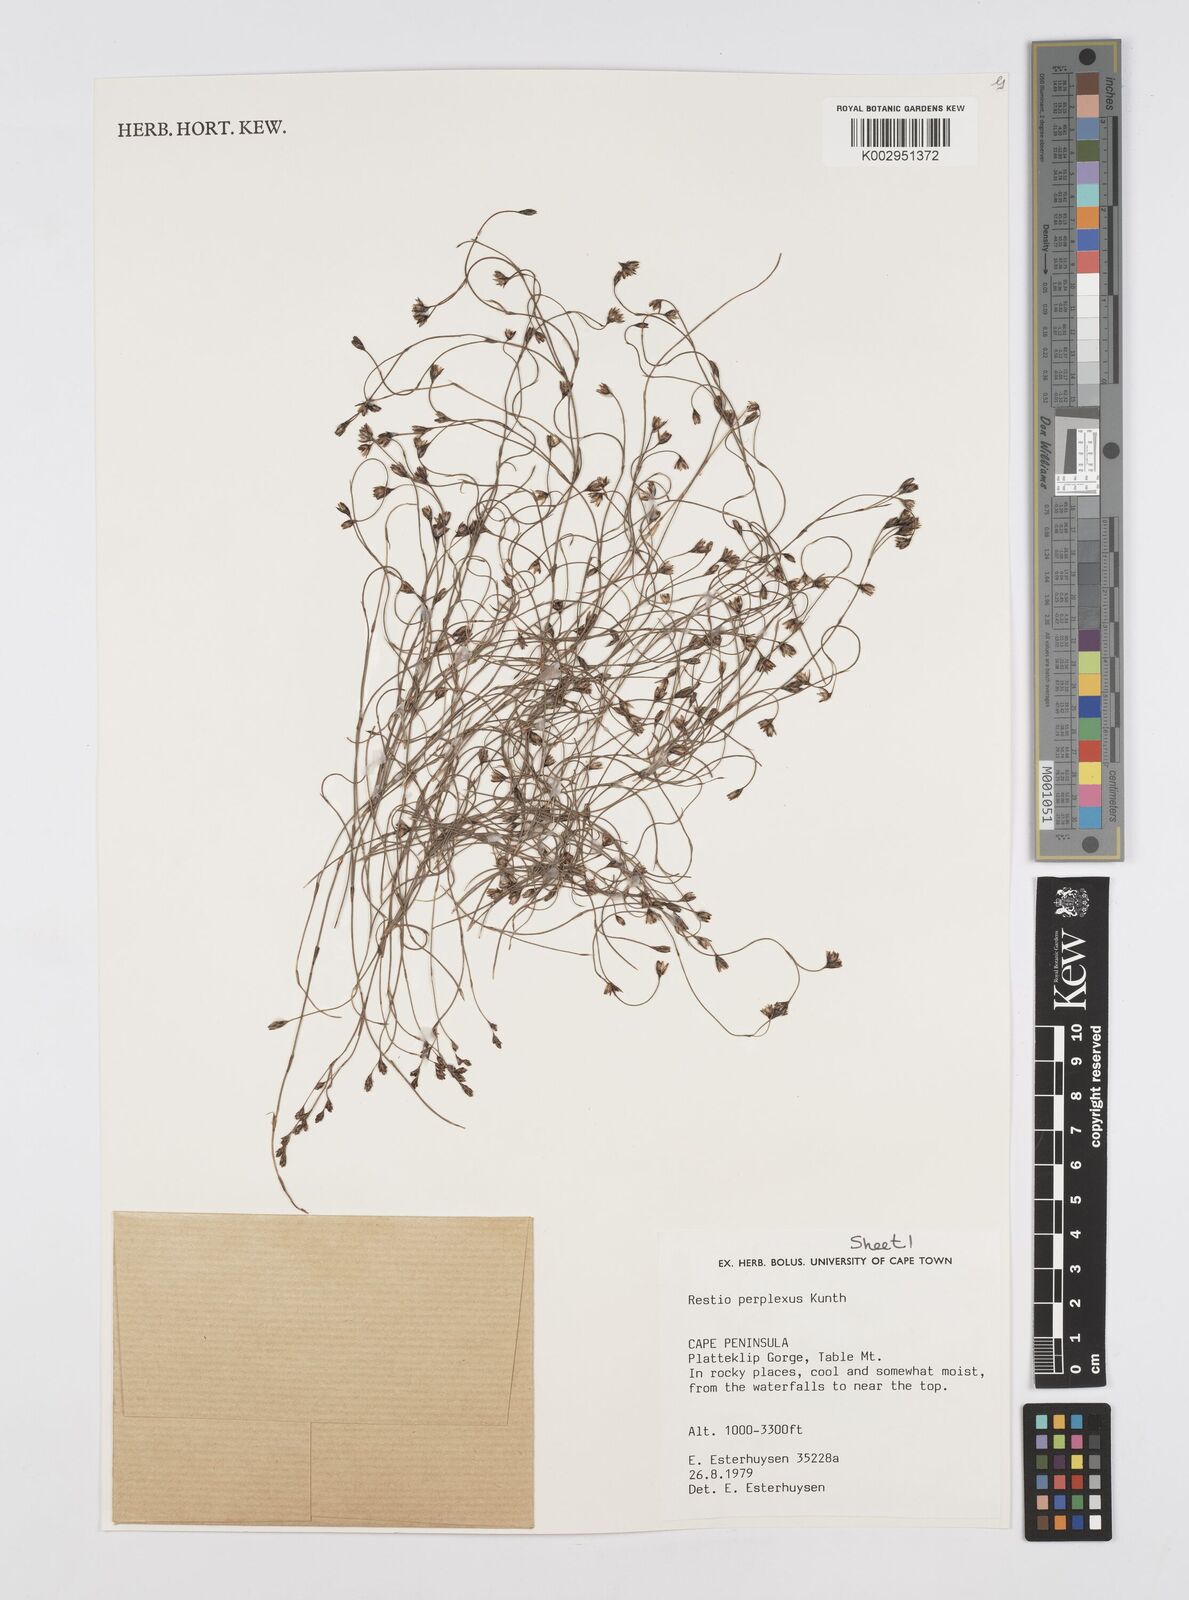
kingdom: Plantae
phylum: Tracheophyta
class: Liliopsida
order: Poales
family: Restionaceae
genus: Restio
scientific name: Restio perplexus
